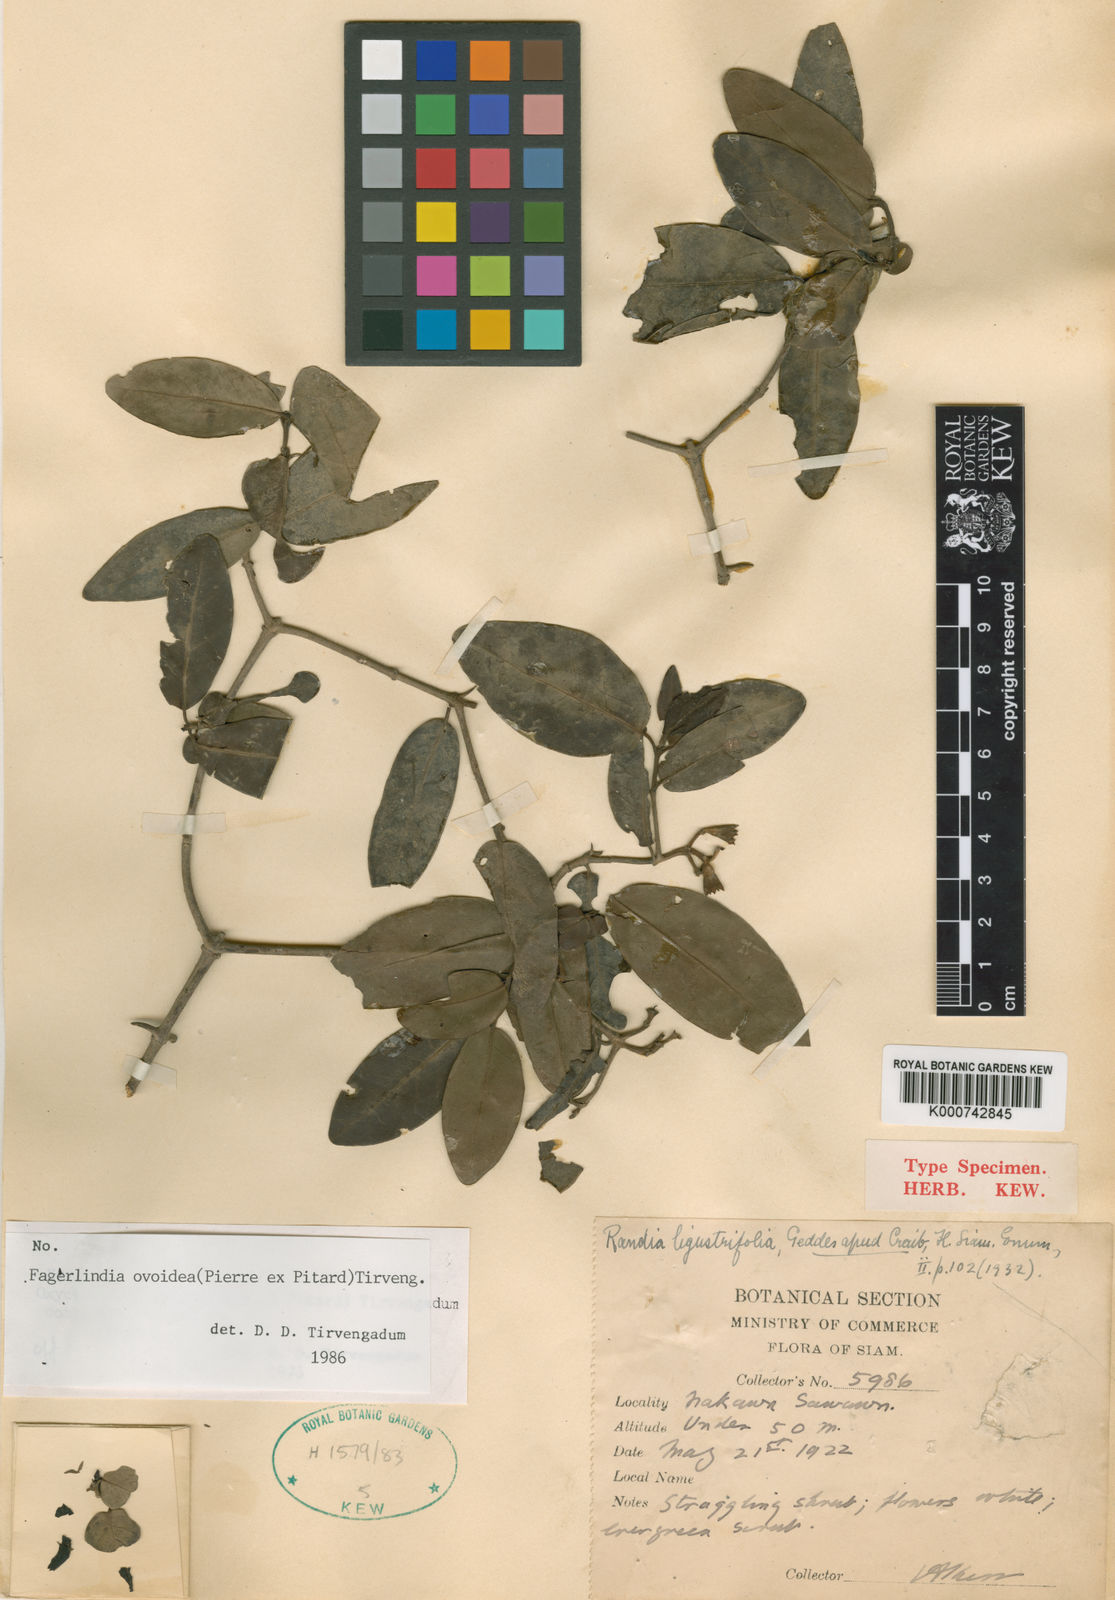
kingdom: Plantae
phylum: Tracheophyta
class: Magnoliopsida
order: Gentianales
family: Rubiaceae
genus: Benkara
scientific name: Benkara ovoidea
